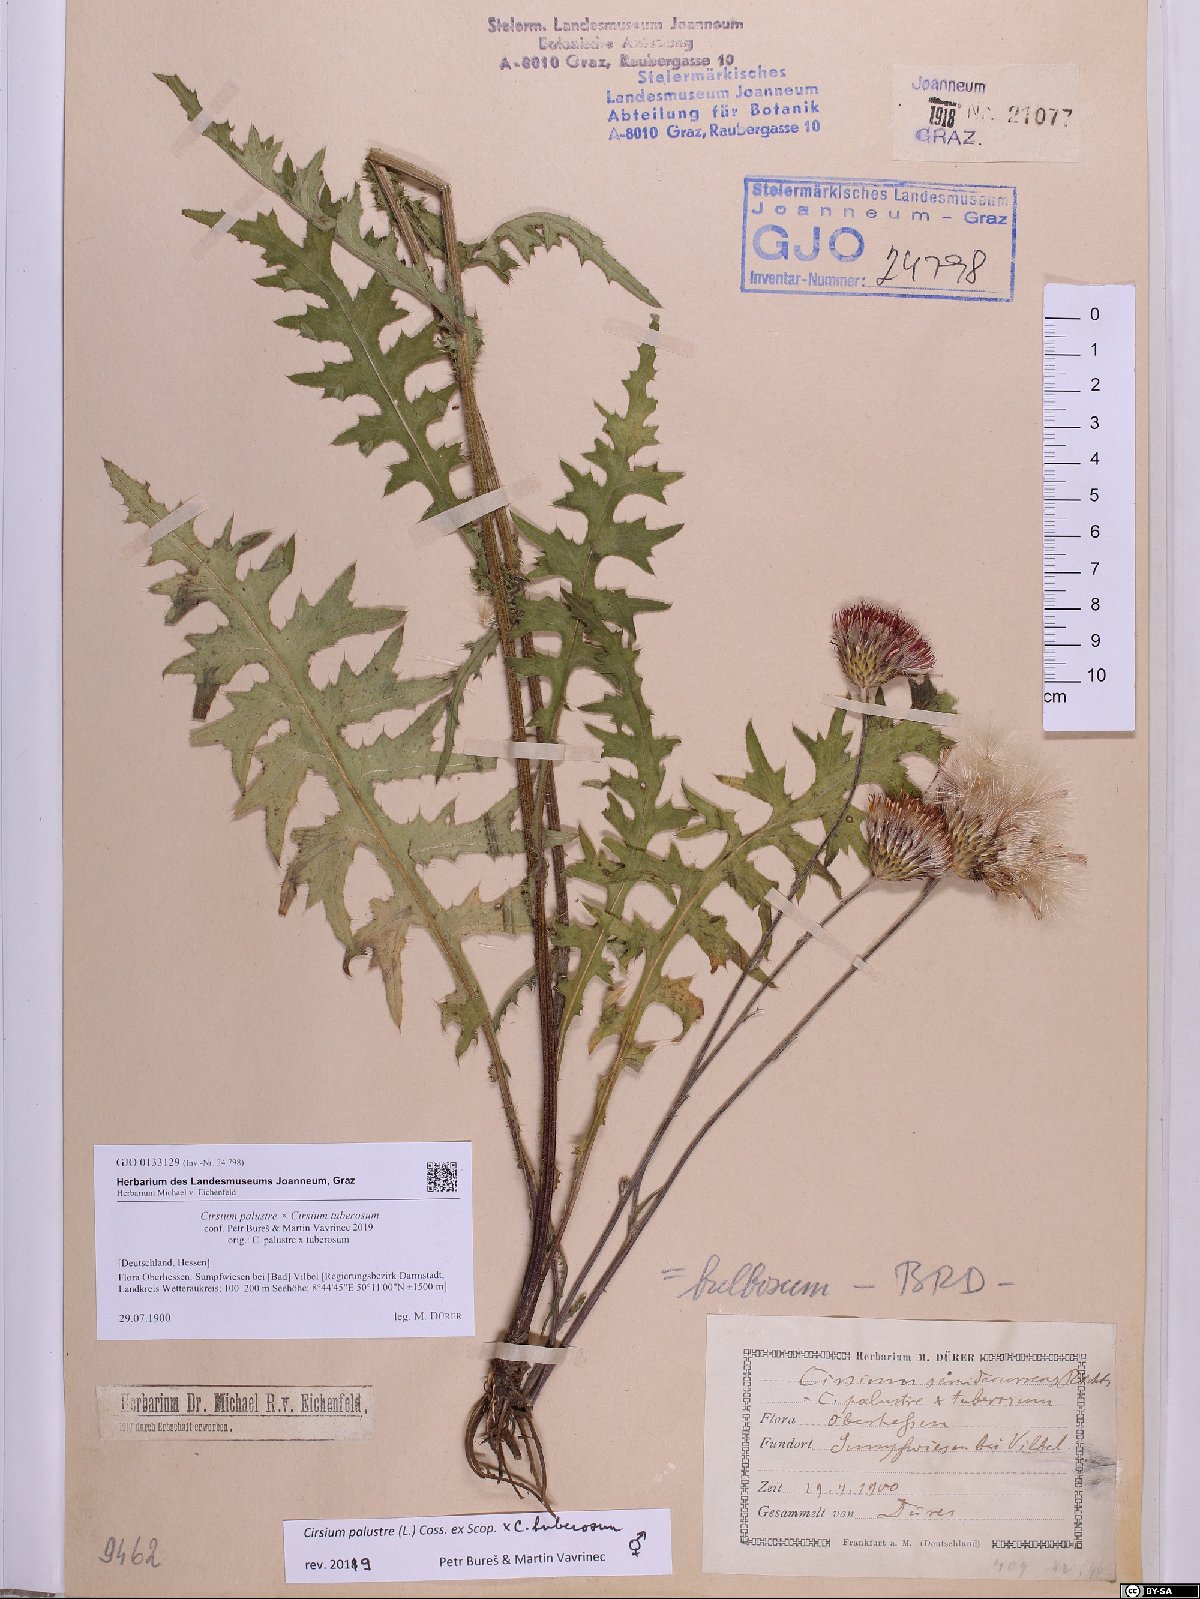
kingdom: Plantae
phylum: Tracheophyta
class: Magnoliopsida
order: Asterales
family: Asteraceae
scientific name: Asteraceae
